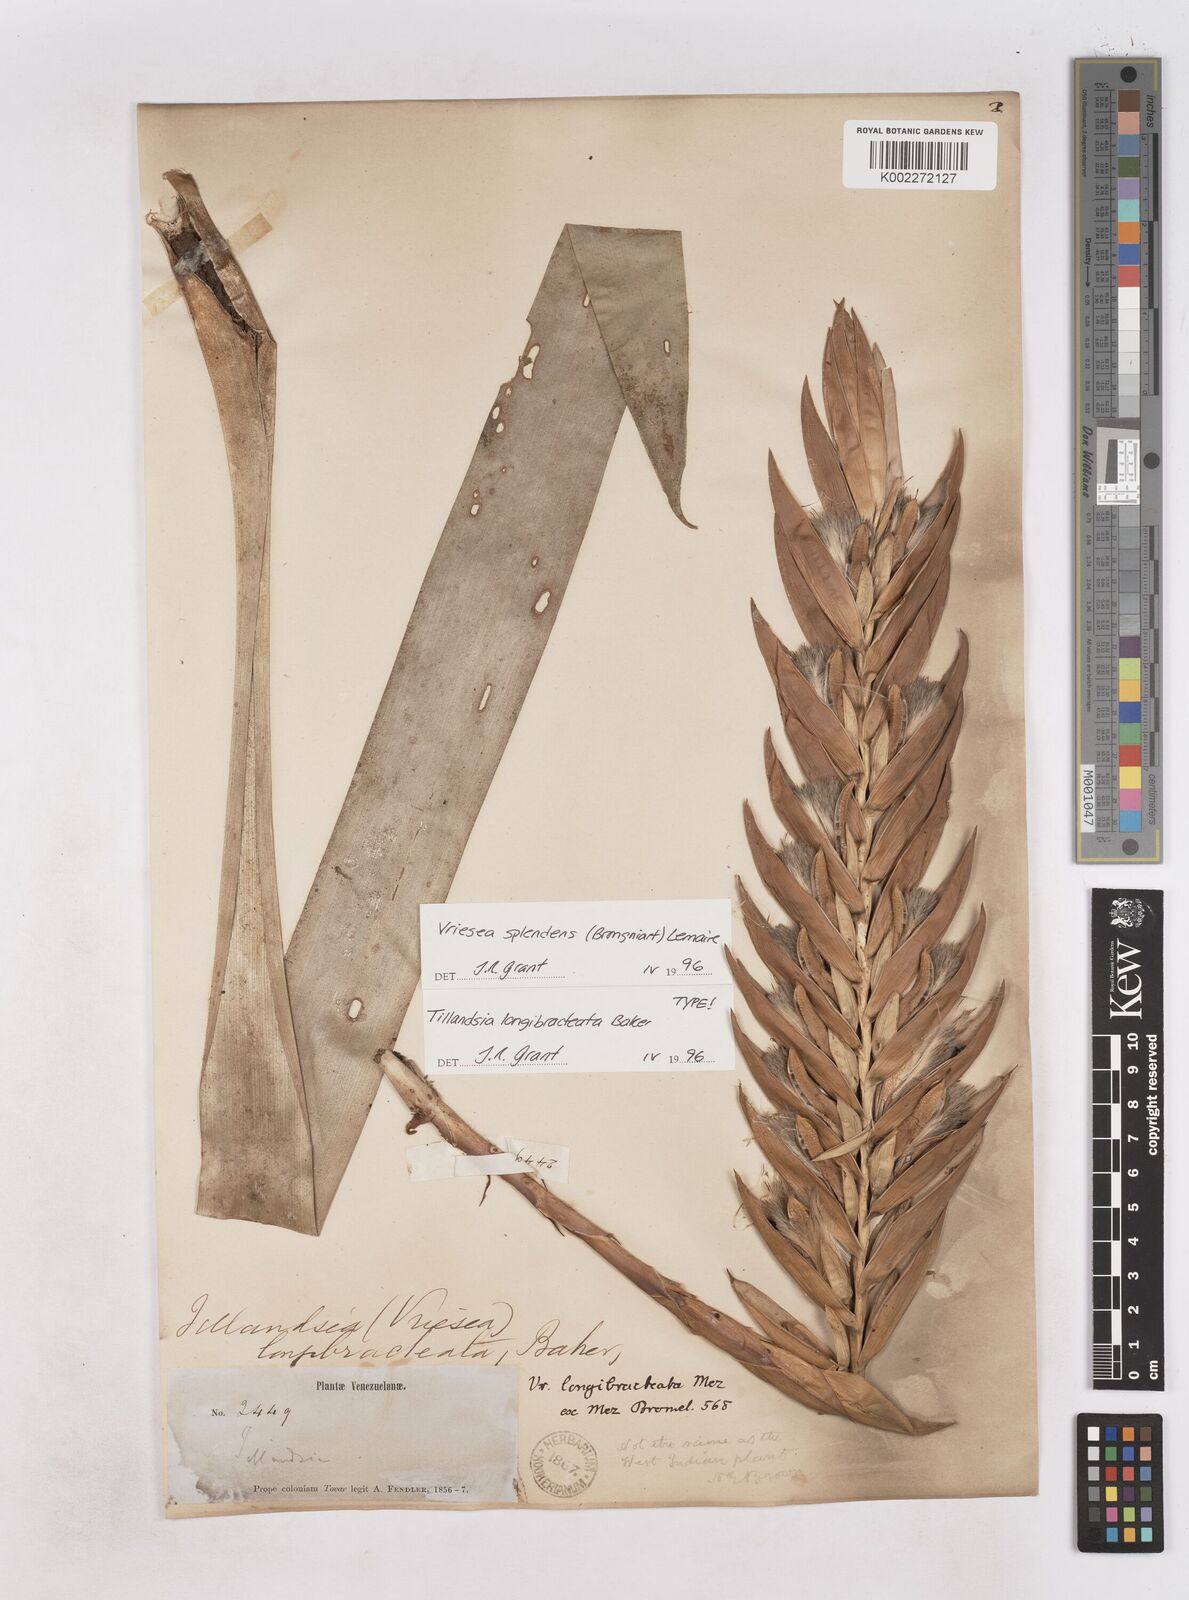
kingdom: Plantae
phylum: Tracheophyta
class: Liliopsida
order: Poales
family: Bromeliaceae
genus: Lutheria
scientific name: Lutheria splendens
